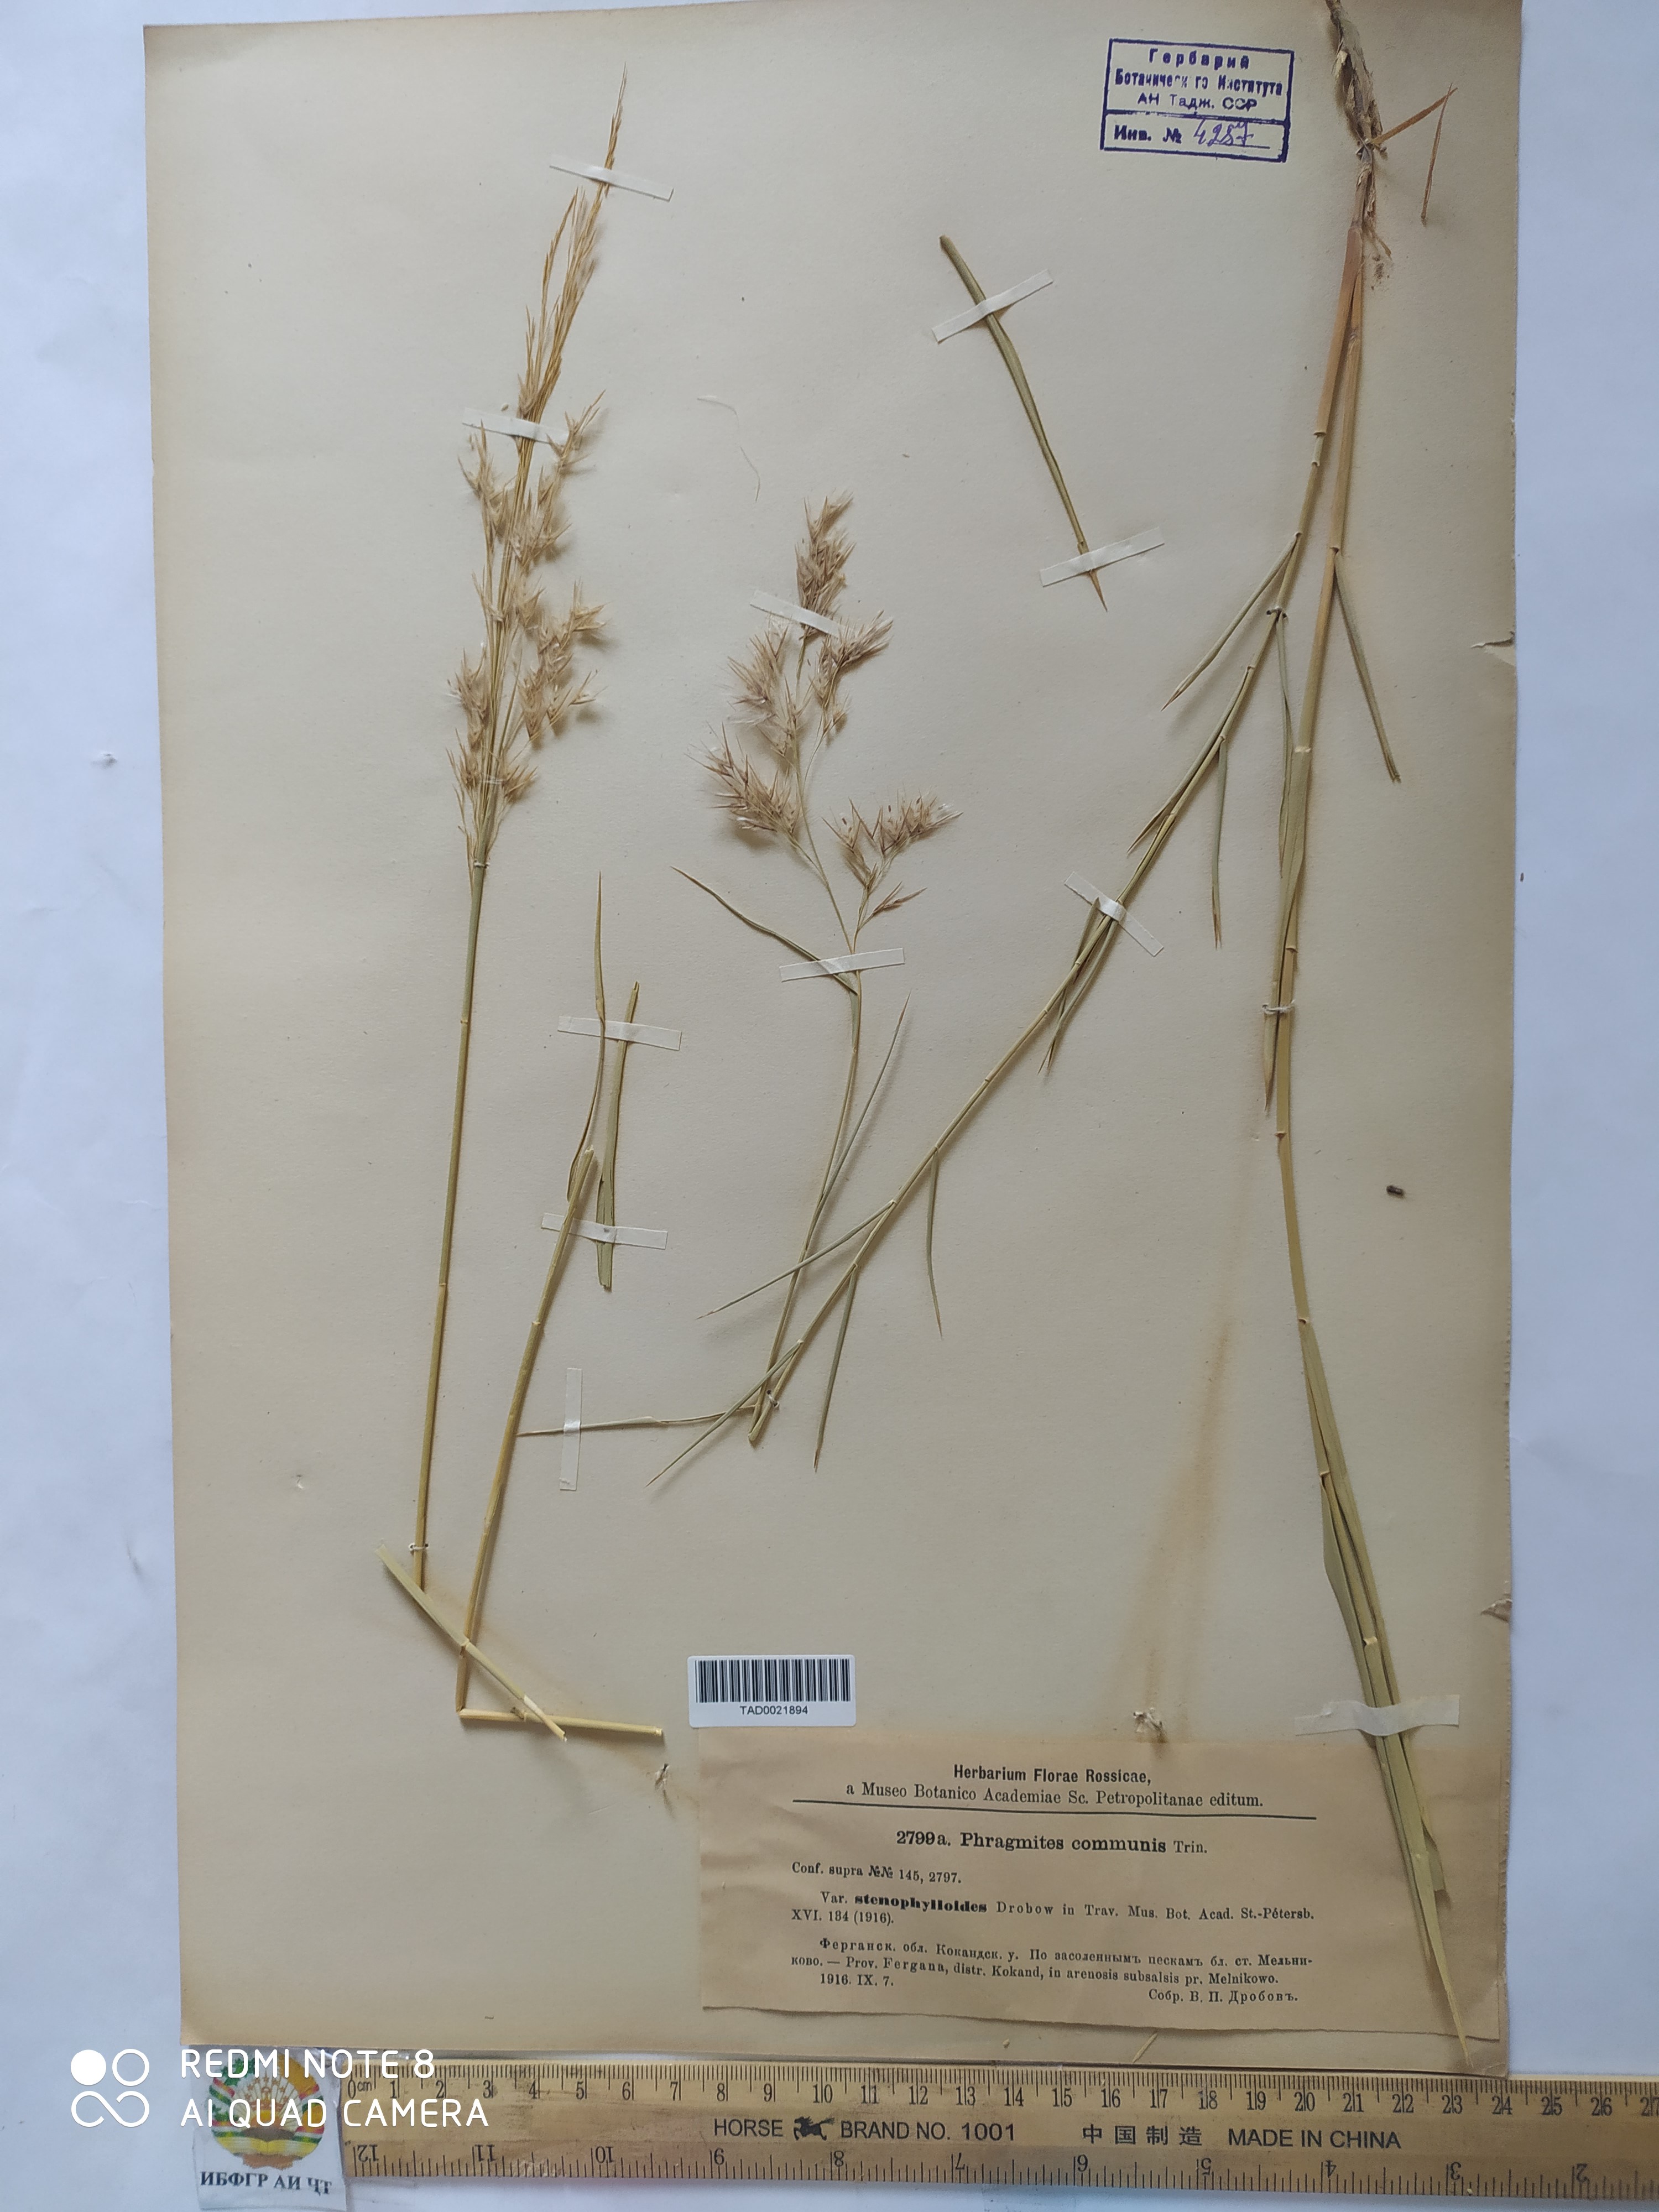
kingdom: Plantae
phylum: Tracheophyta
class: Liliopsida
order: Poales
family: Poaceae
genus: Phragmites
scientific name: Phragmites australis
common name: Common reed
